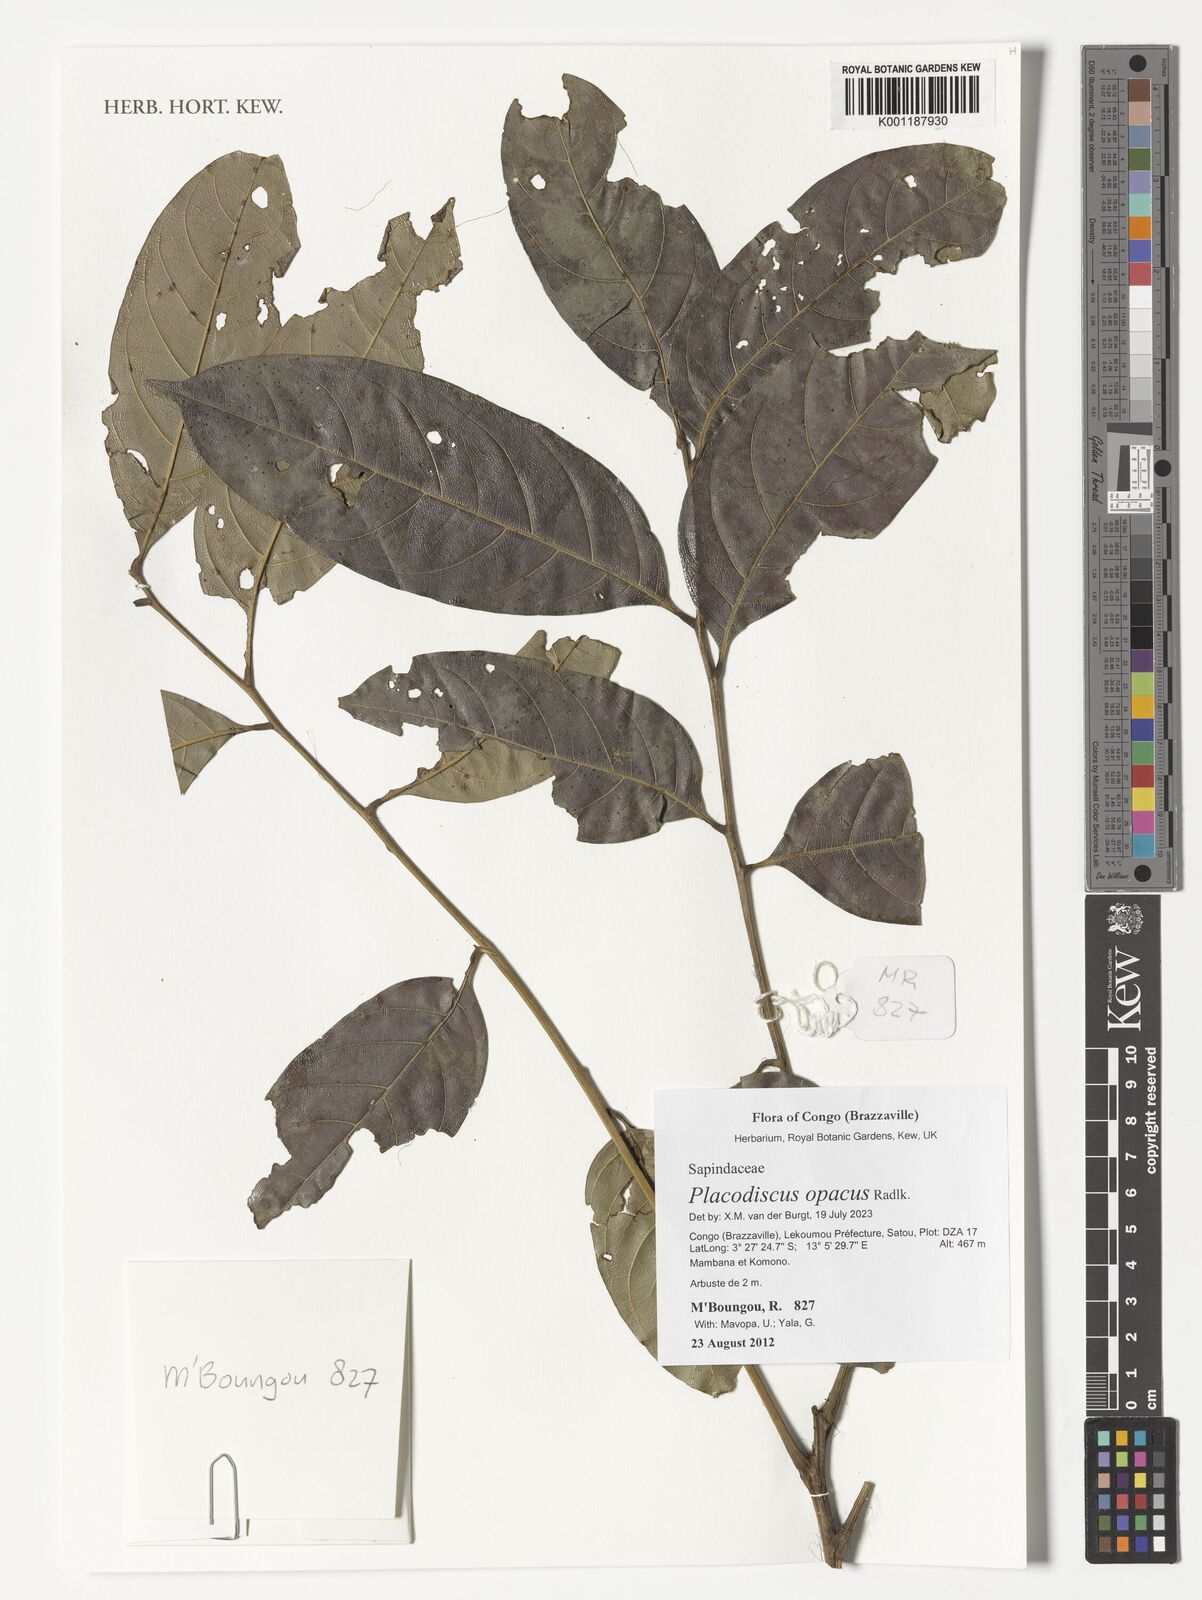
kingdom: Plantae
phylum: Tracheophyta
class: Magnoliopsida
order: Sapindales
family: Sapindaceae
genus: Placodiscus
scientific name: Placodiscus opacus
